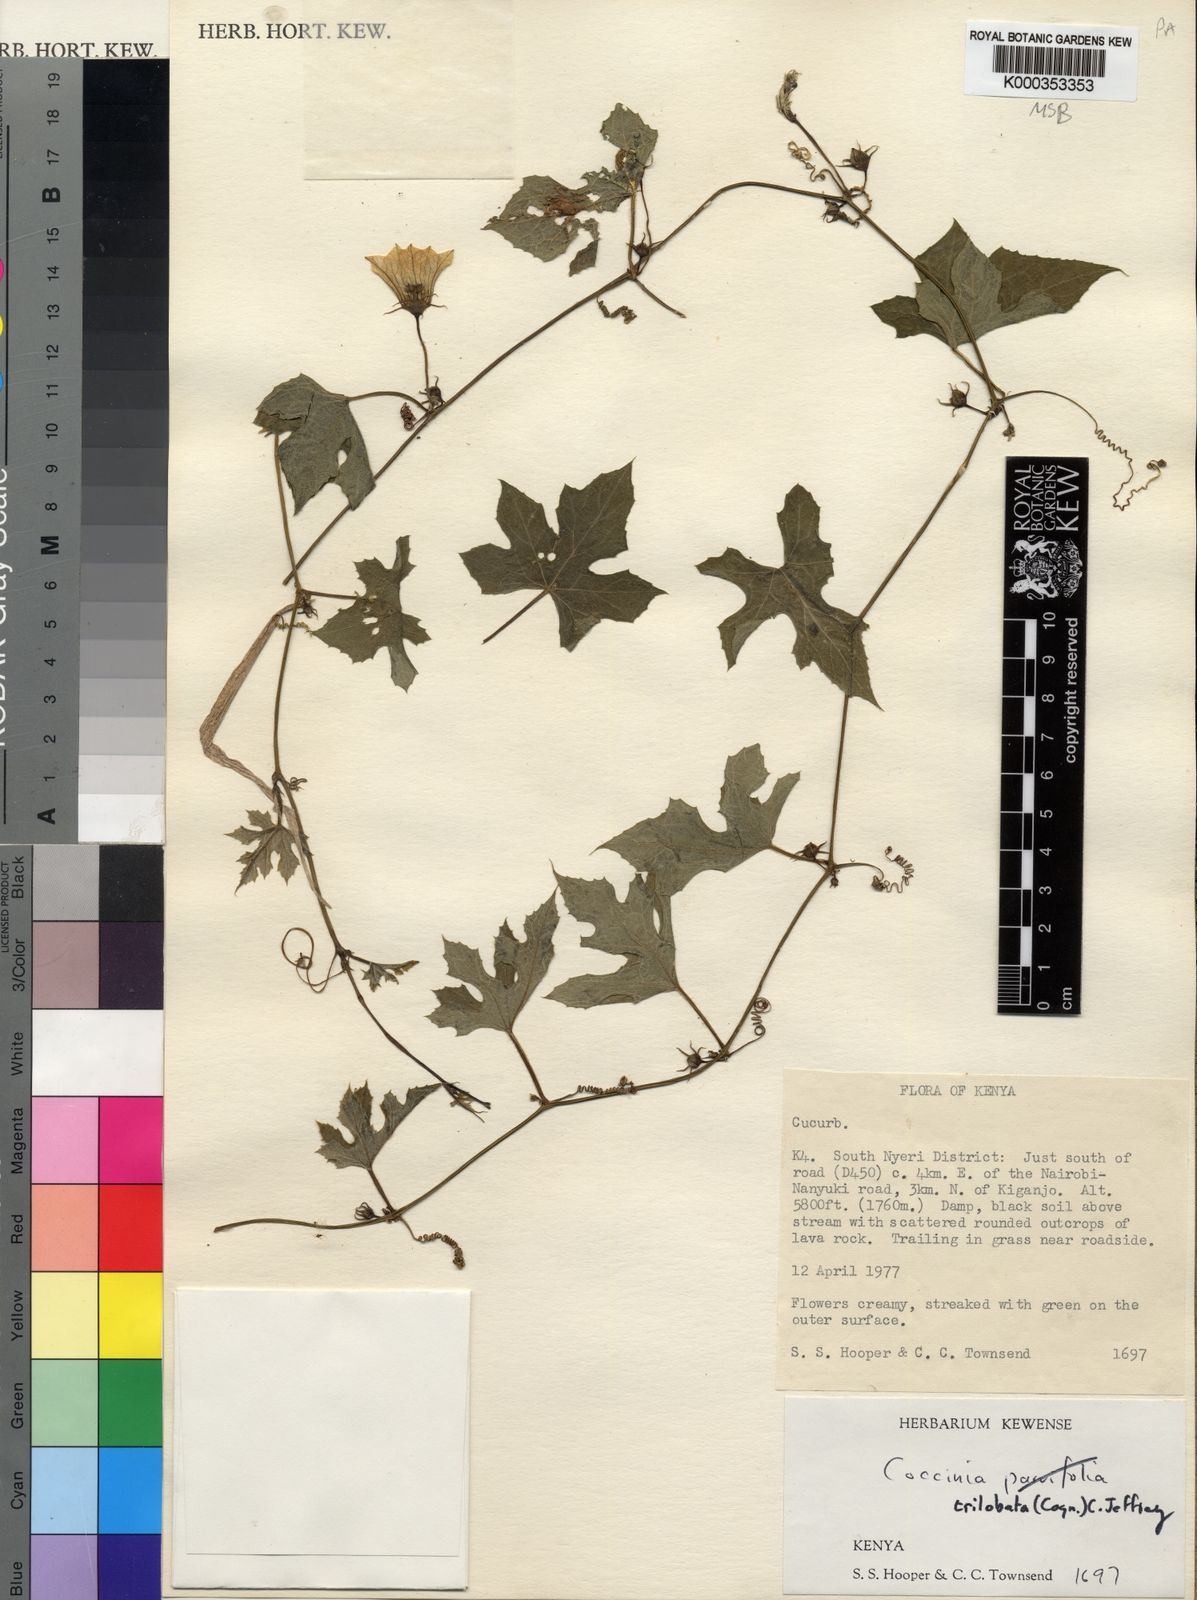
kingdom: Plantae
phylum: Tracheophyta
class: Magnoliopsida
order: Cucurbitales
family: Cucurbitaceae
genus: Coccinia
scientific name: Coccinia trilobata
